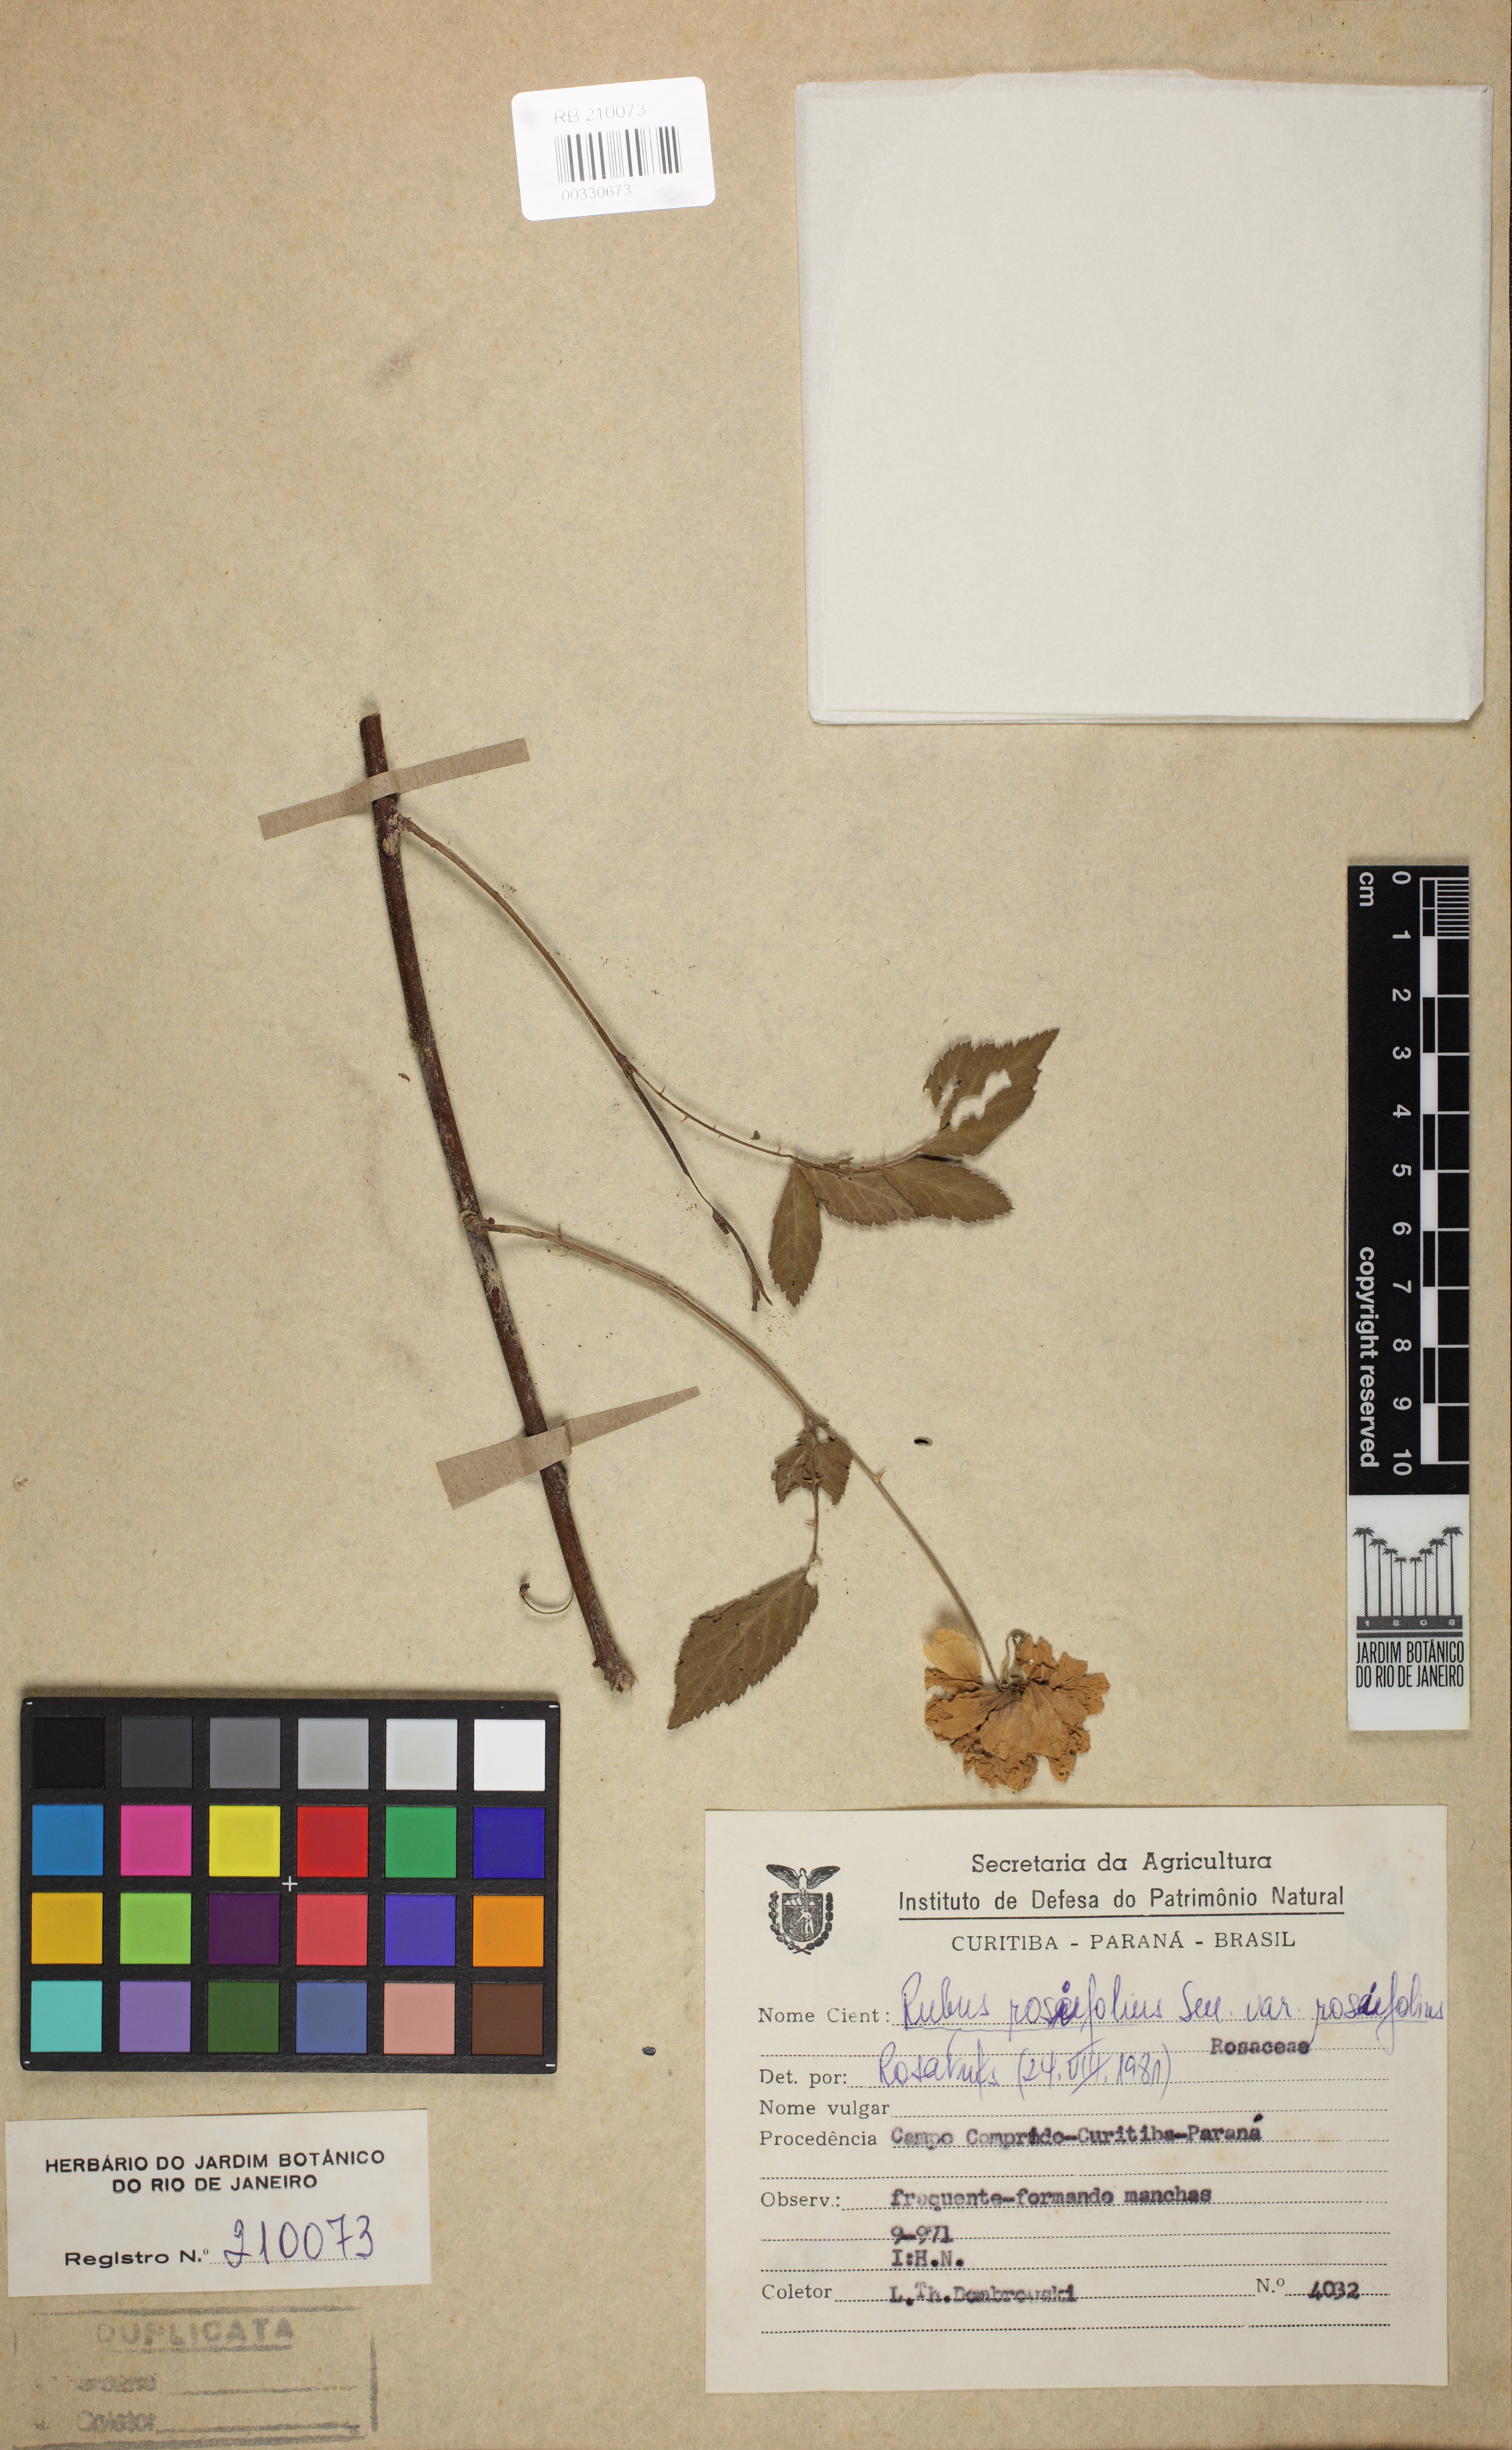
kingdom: Plantae
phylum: Tracheophyta
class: Magnoliopsida
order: Rosales
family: Rosaceae
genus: Rubus
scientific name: Rubus rosifolius
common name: Roseleaf raspberry
